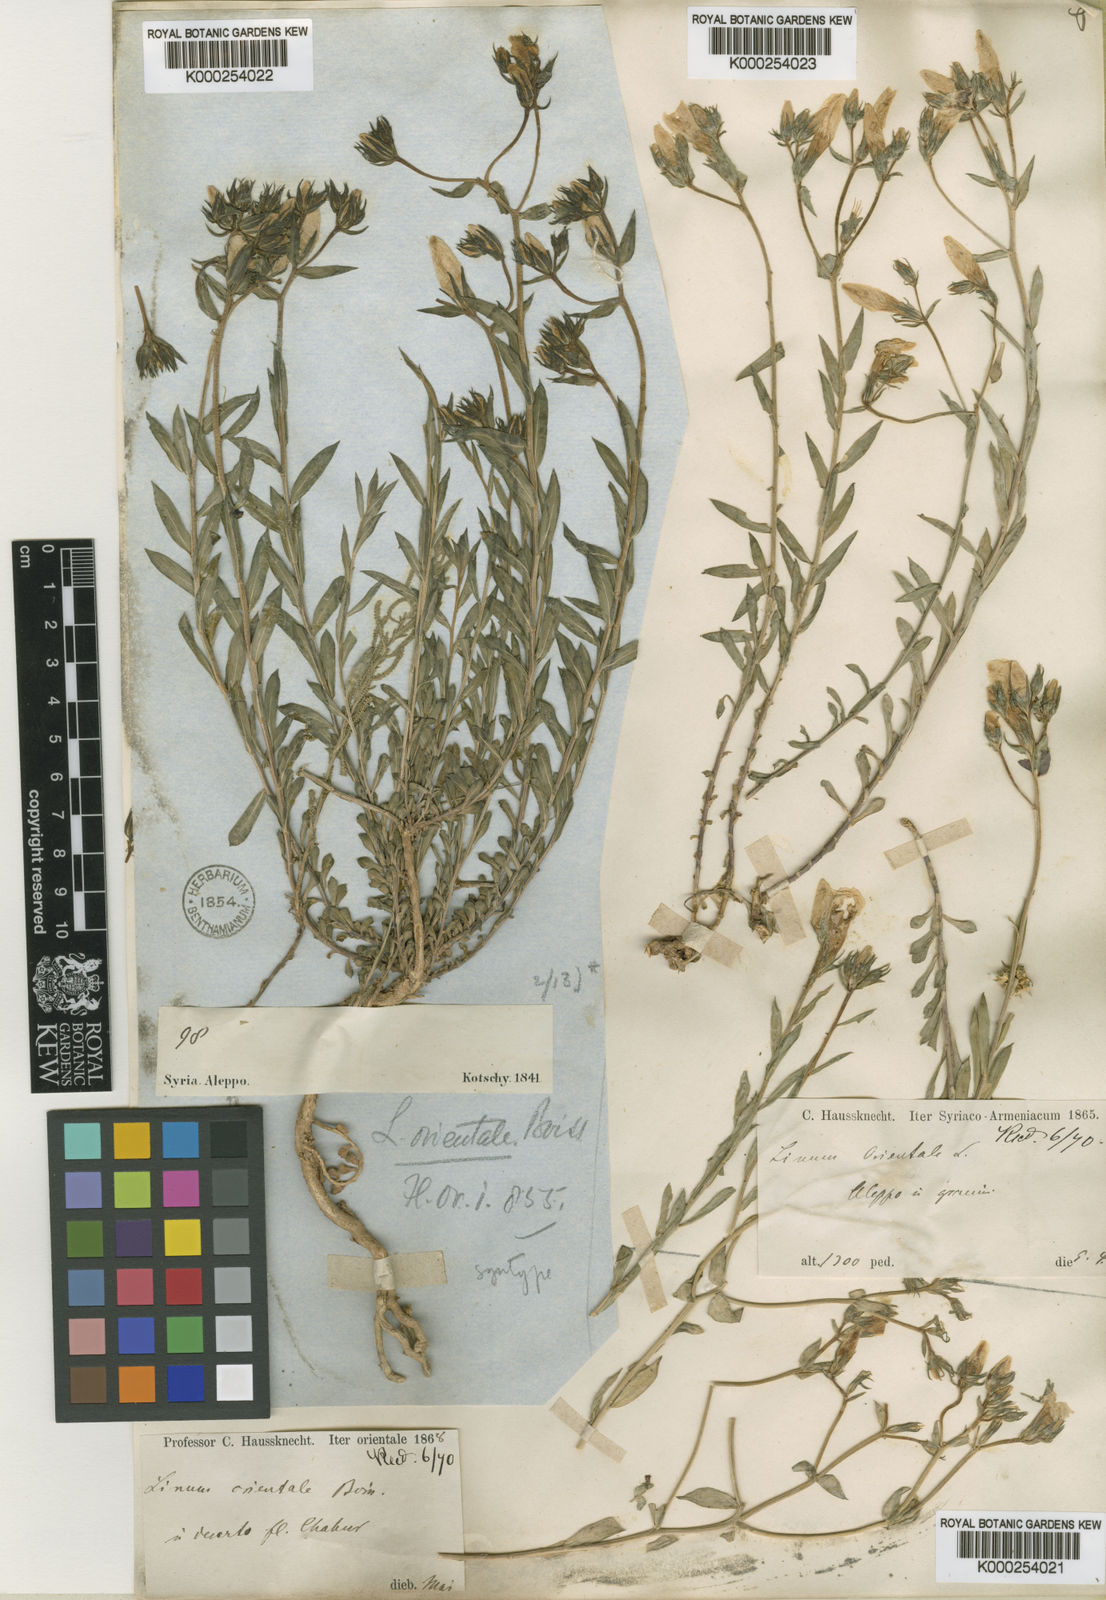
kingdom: Plantae
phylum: Tracheophyta
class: Magnoliopsida
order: Malpighiales
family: Linaceae
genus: Linum
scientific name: Linum mucronatum
